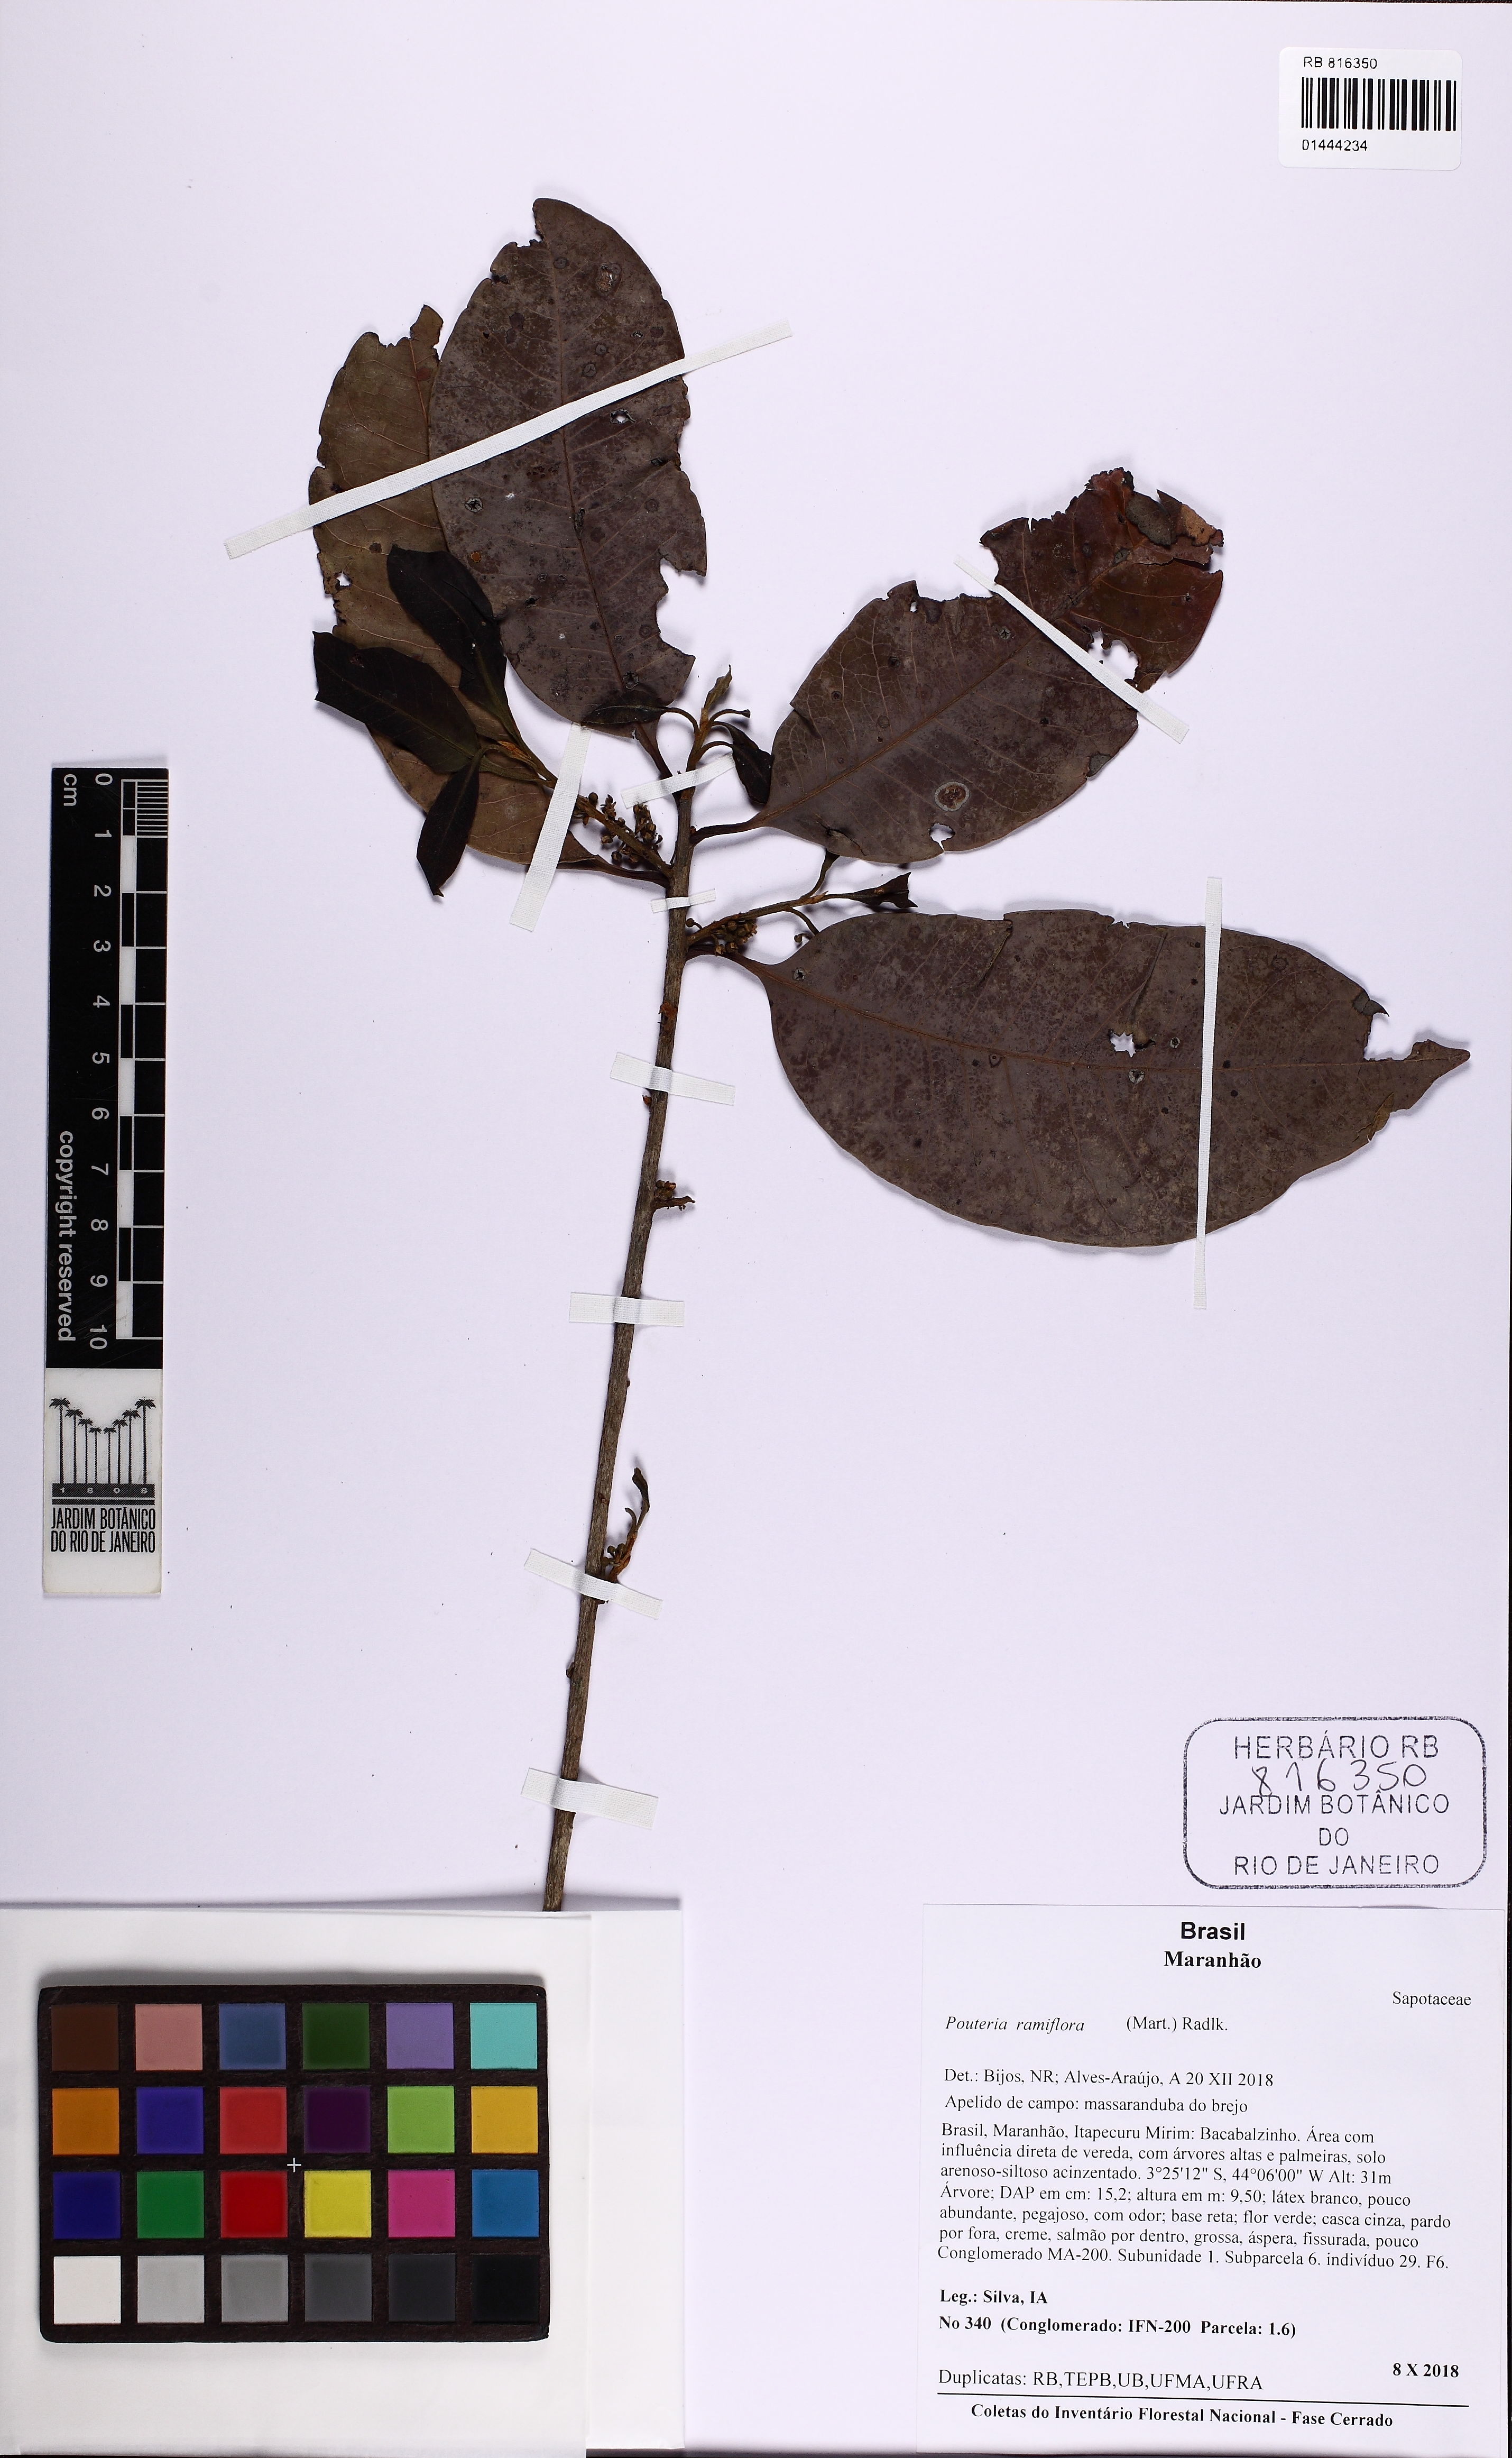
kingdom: Plantae
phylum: Tracheophyta
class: Magnoliopsida
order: Ericales
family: Sapotaceae
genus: Pouteria
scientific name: Pouteria ramiflora
